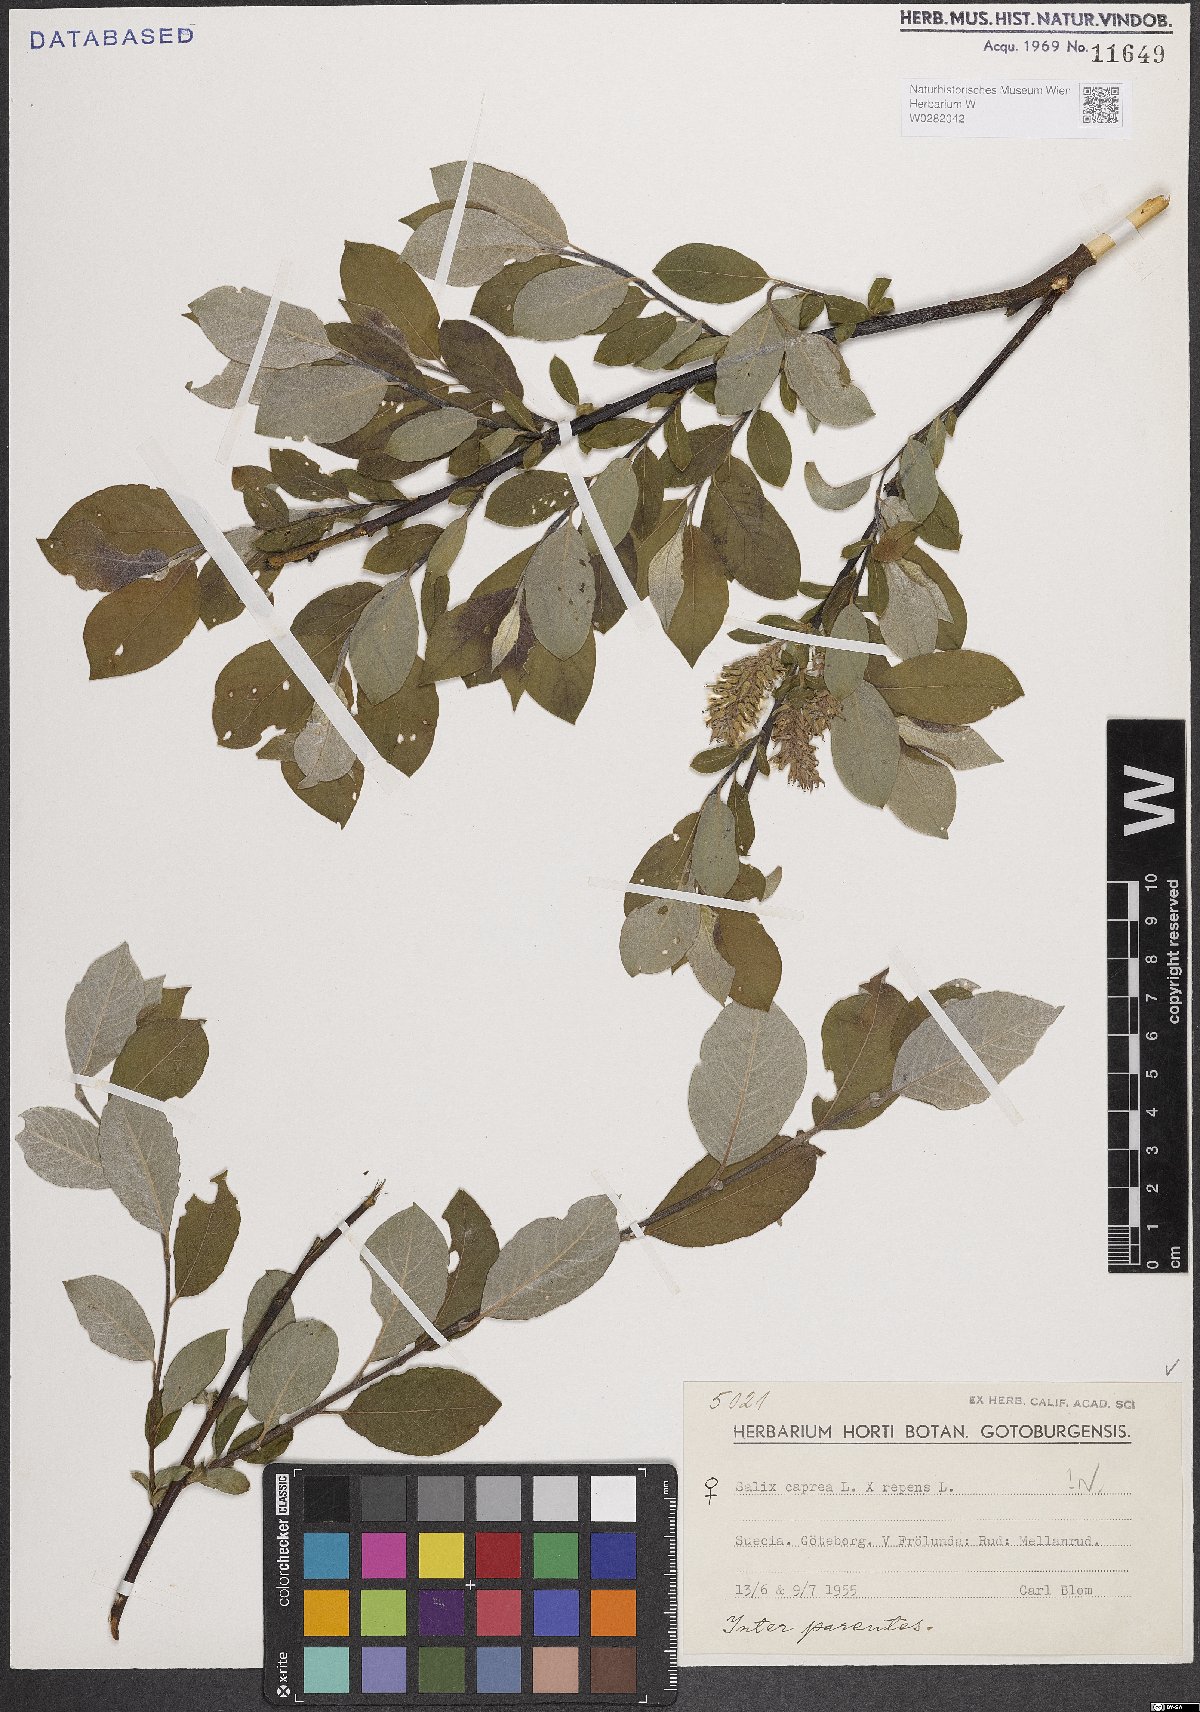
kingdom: Plantae
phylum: Tracheophyta
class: Magnoliopsida
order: Malpighiales
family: Salicaceae
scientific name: Salicaceae
